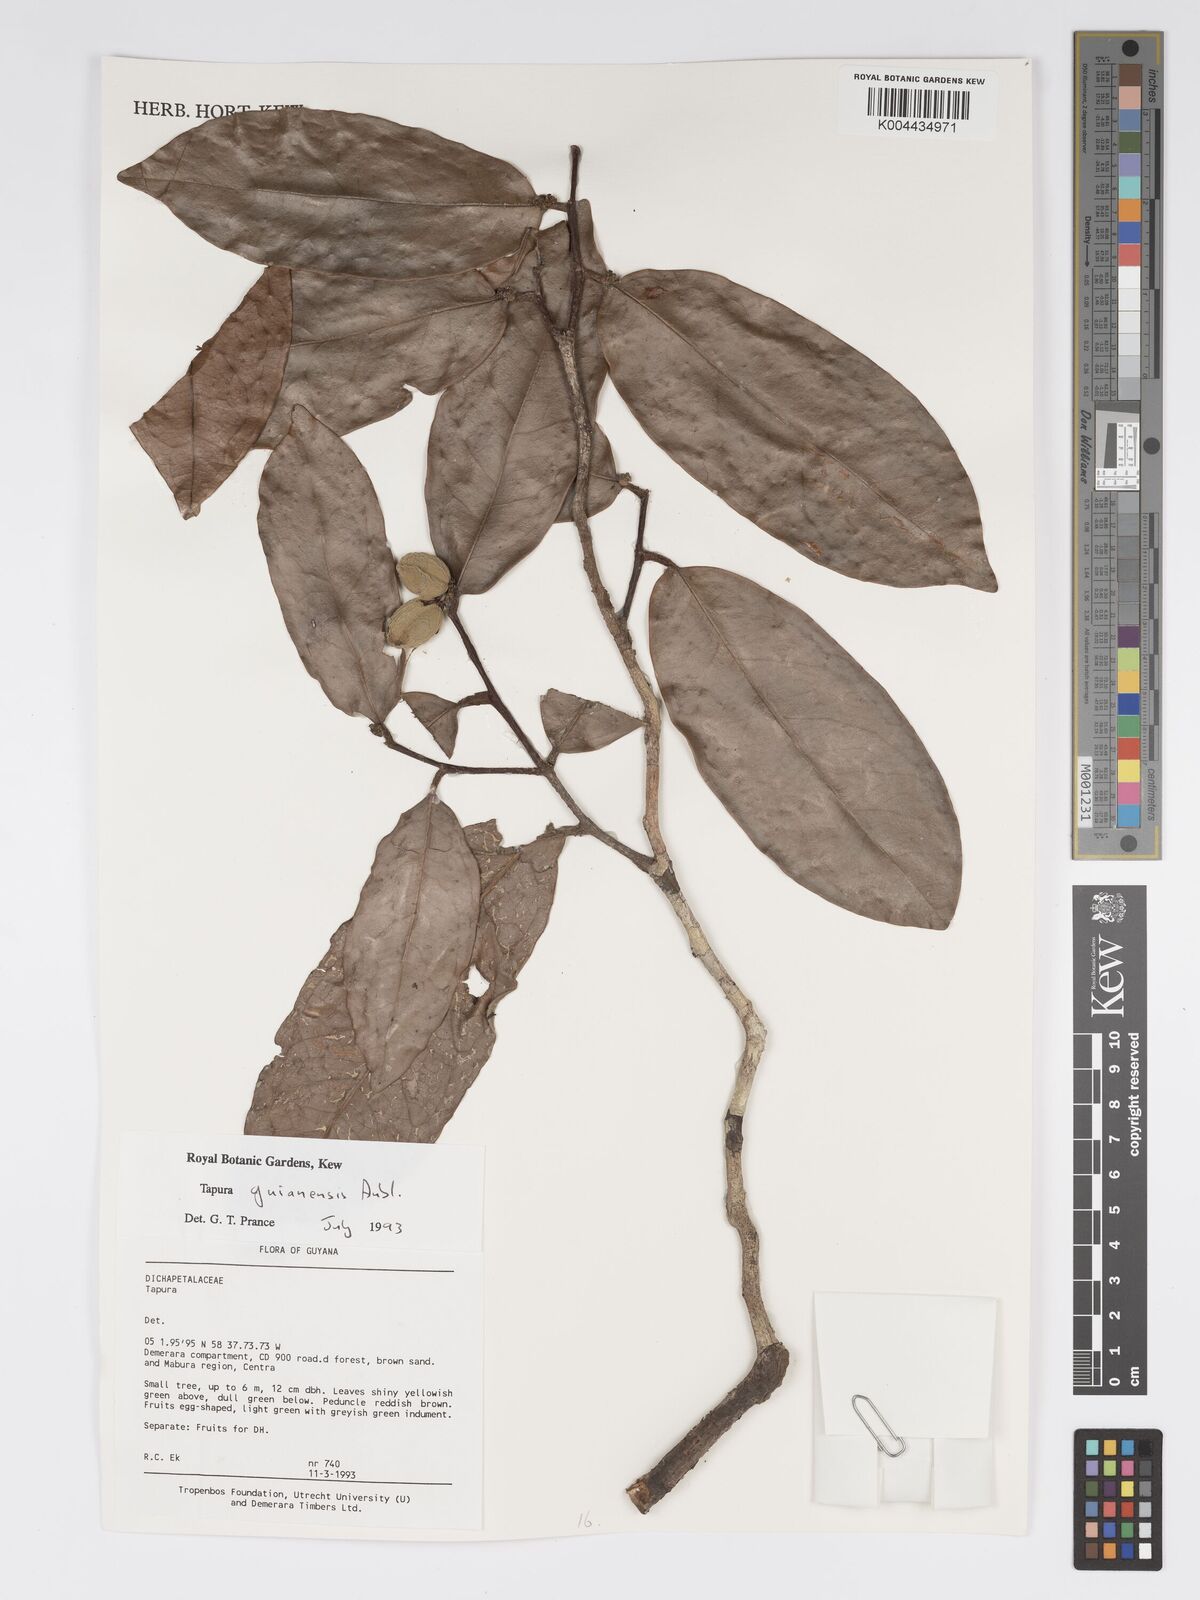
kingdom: Plantae
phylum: Tracheophyta
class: Magnoliopsida
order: Malpighiales
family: Dichapetalaceae
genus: Tapura
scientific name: Tapura guianensis
